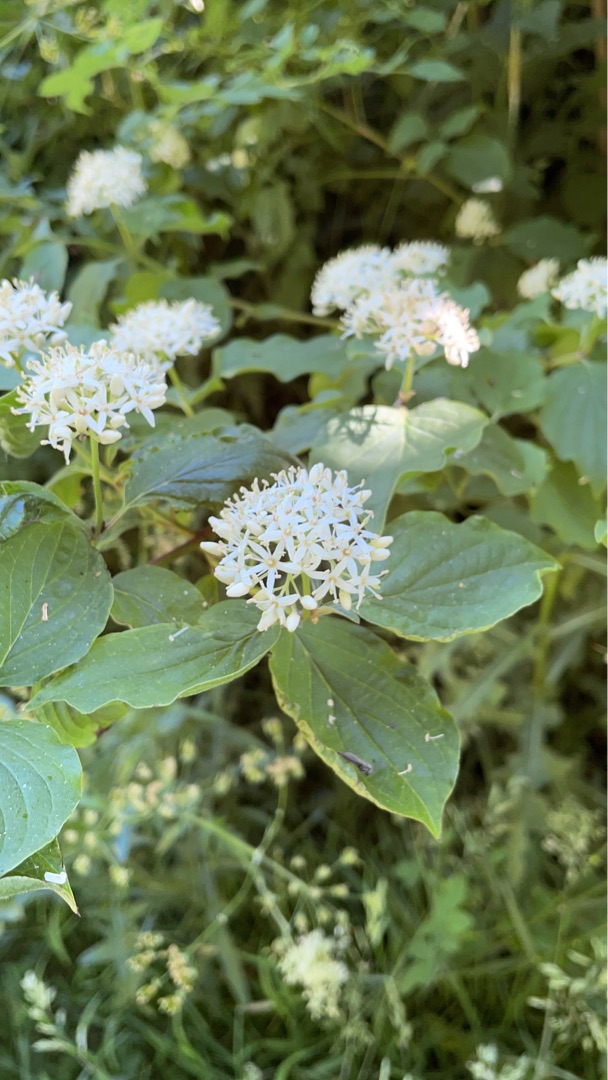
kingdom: Plantae
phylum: Tracheophyta
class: Magnoliopsida
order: Cornales
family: Cornaceae
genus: Cornus
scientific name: Cornus sanguinea
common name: Rød kornel
